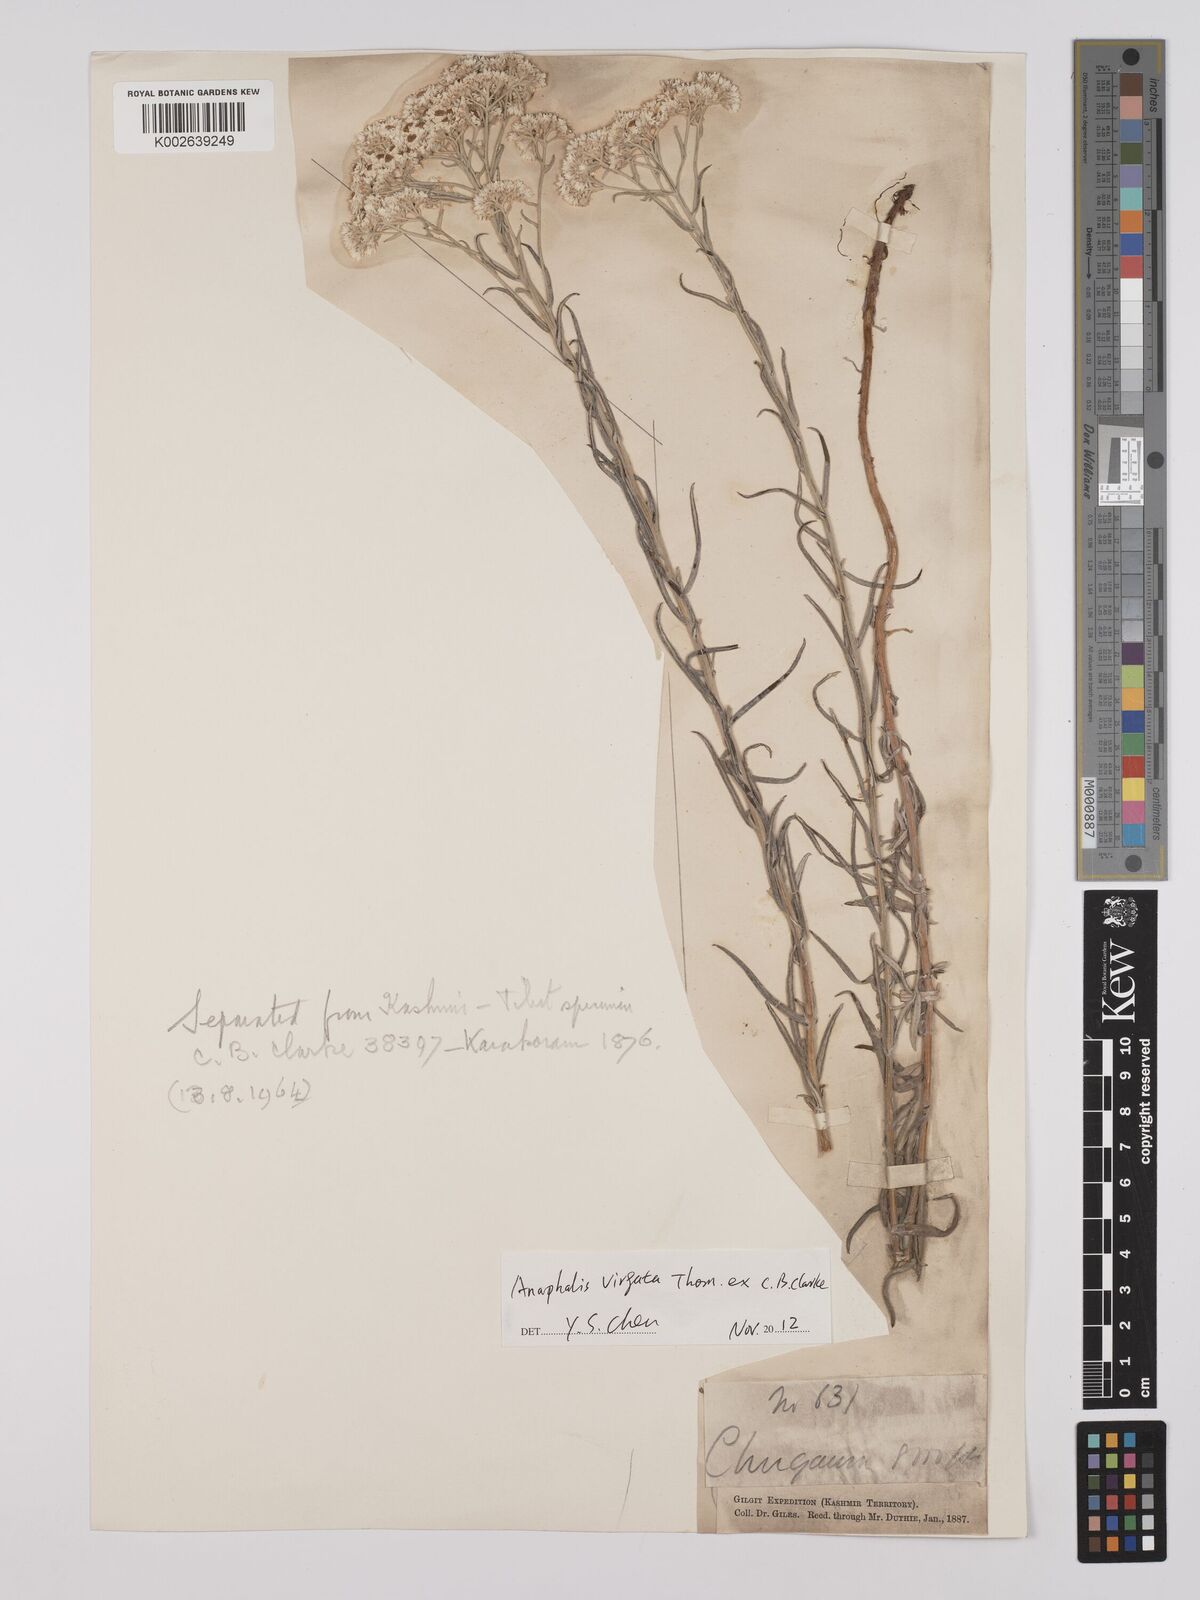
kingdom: Plantae
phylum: Tracheophyta
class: Magnoliopsida
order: Asterales
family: Asteraceae
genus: Anaphalis
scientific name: Anaphalis
